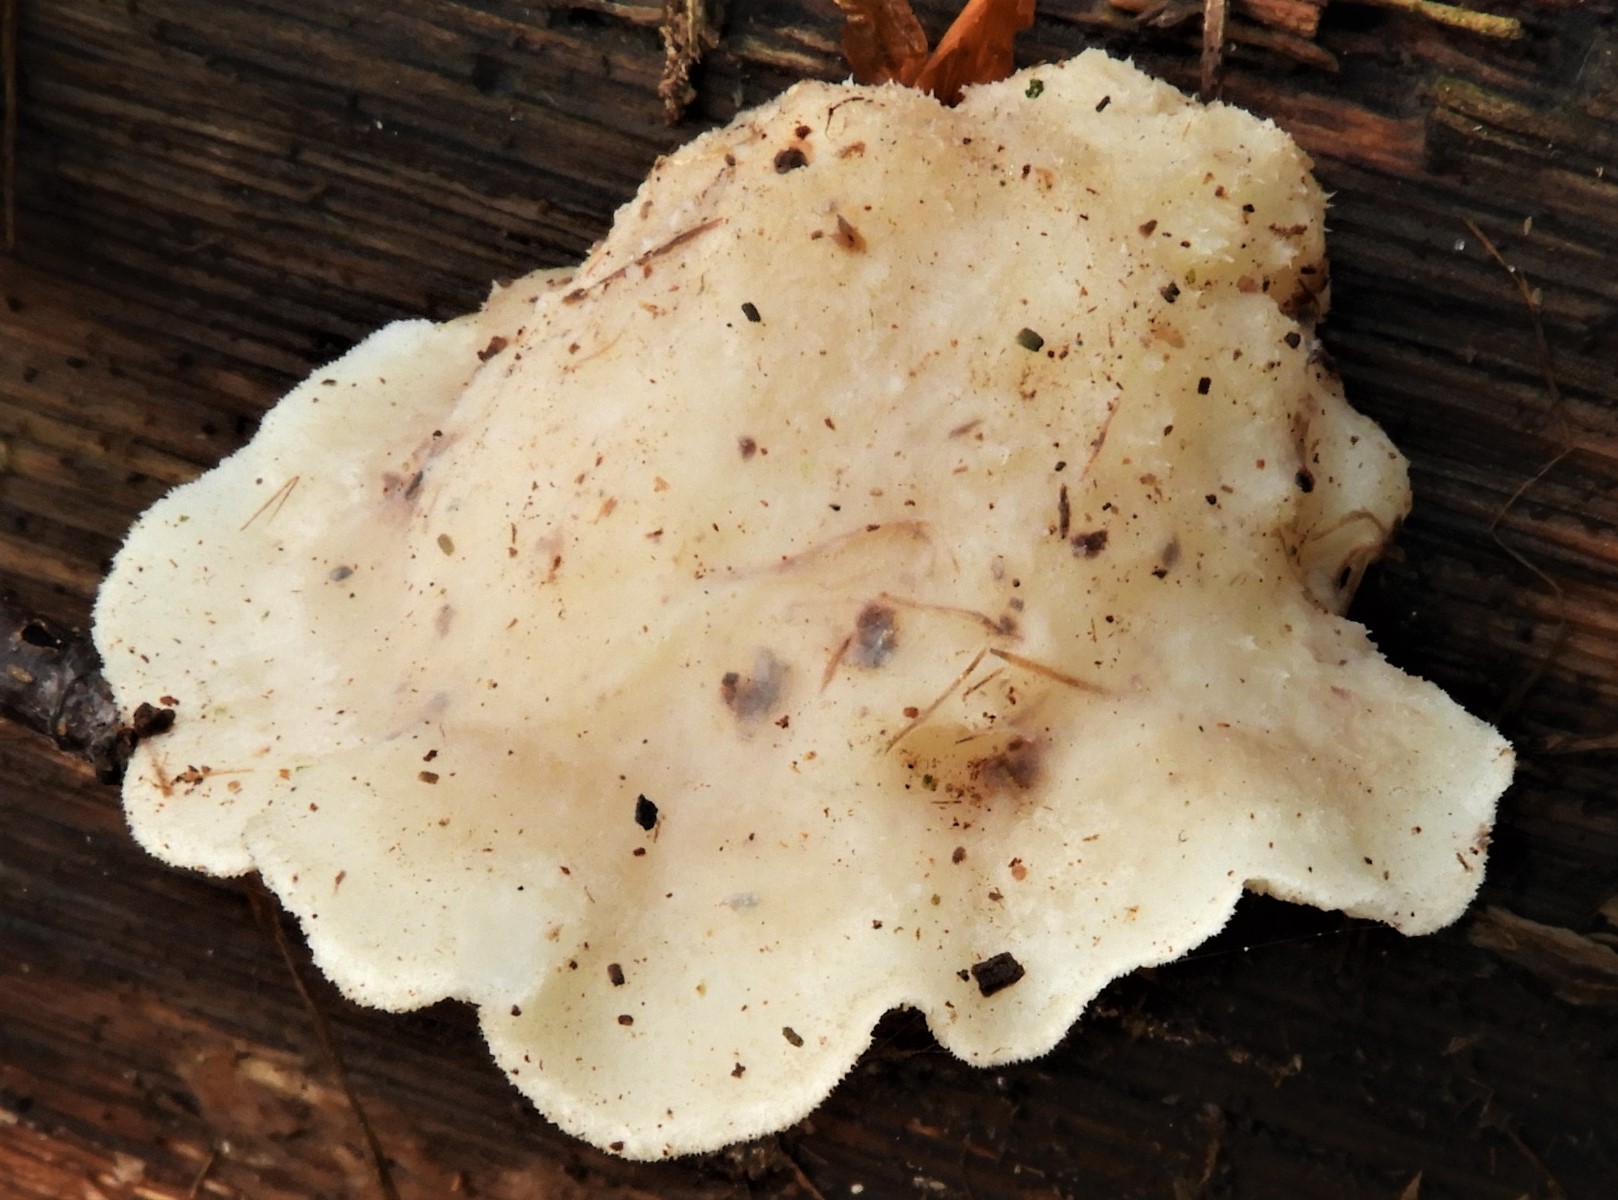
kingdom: Fungi
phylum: Basidiomycota
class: Agaricomycetes
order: Polyporales
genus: Amaropostia
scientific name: Amaropostia stiptica
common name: bitter kødporesvamp
